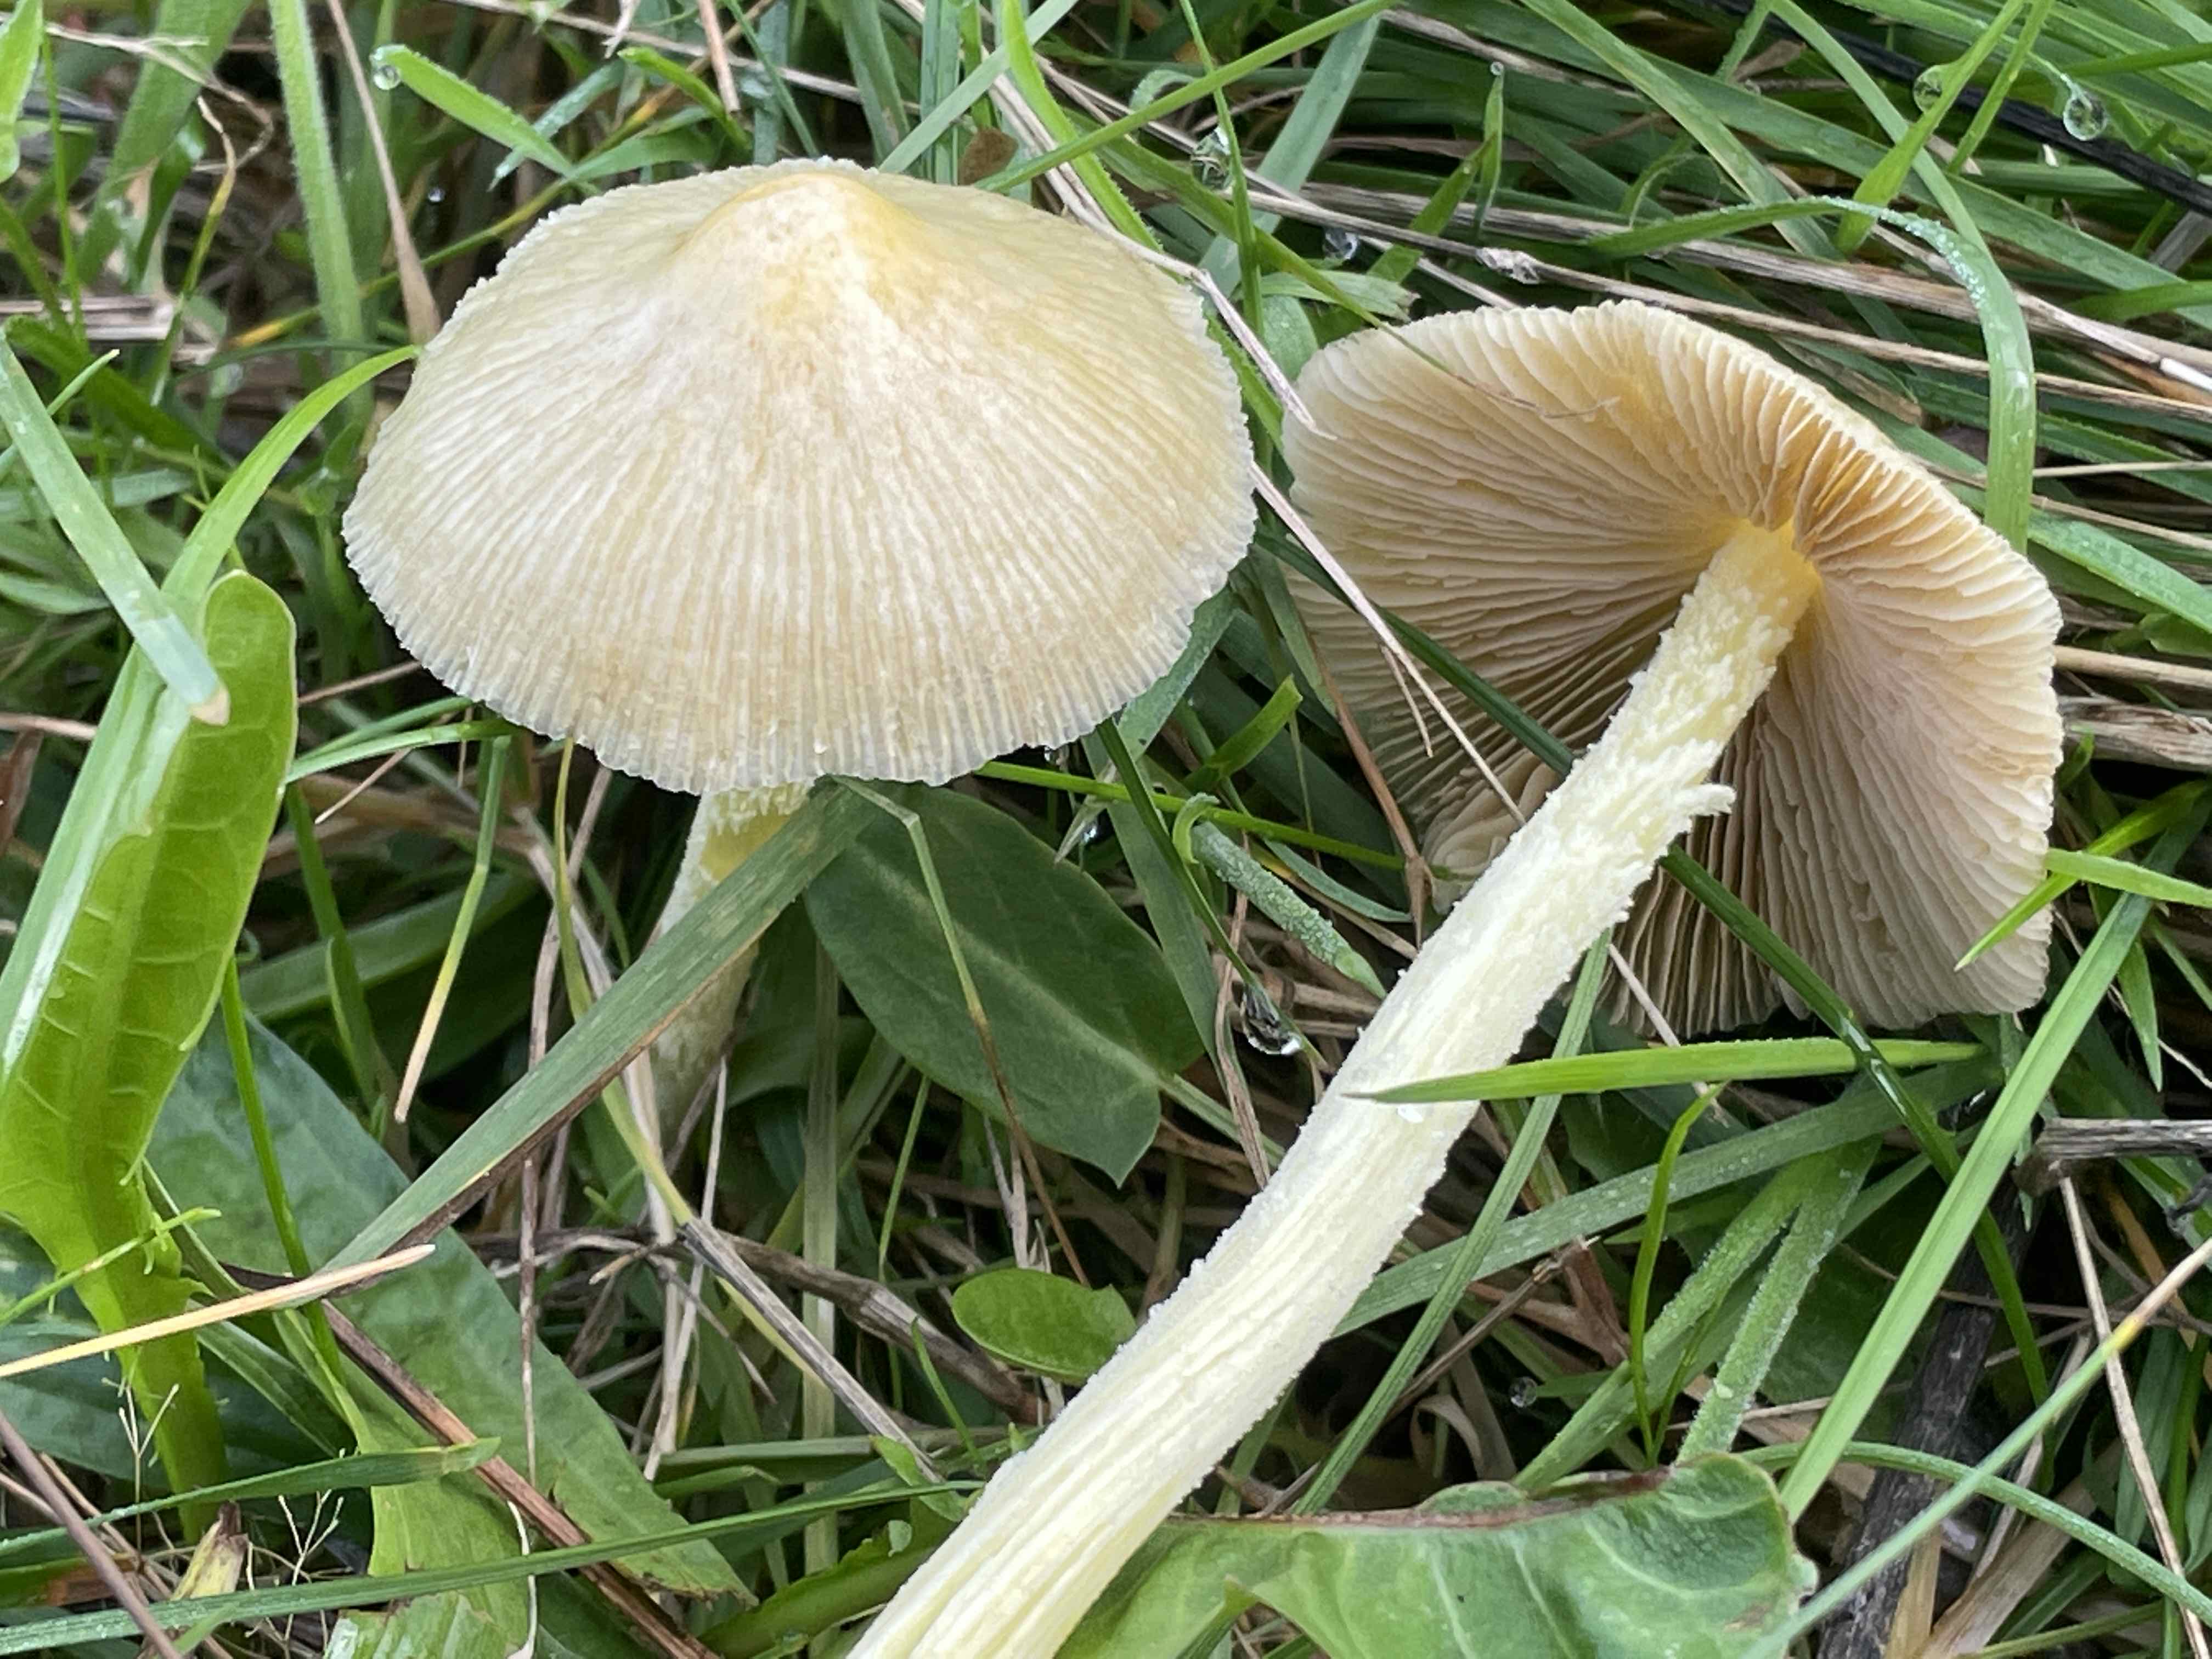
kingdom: Fungi
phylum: Basidiomycota
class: Agaricomycetes
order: Agaricales
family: Bolbitiaceae
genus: Bolbitius
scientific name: Bolbitius titubans
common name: almindelig gulhat
